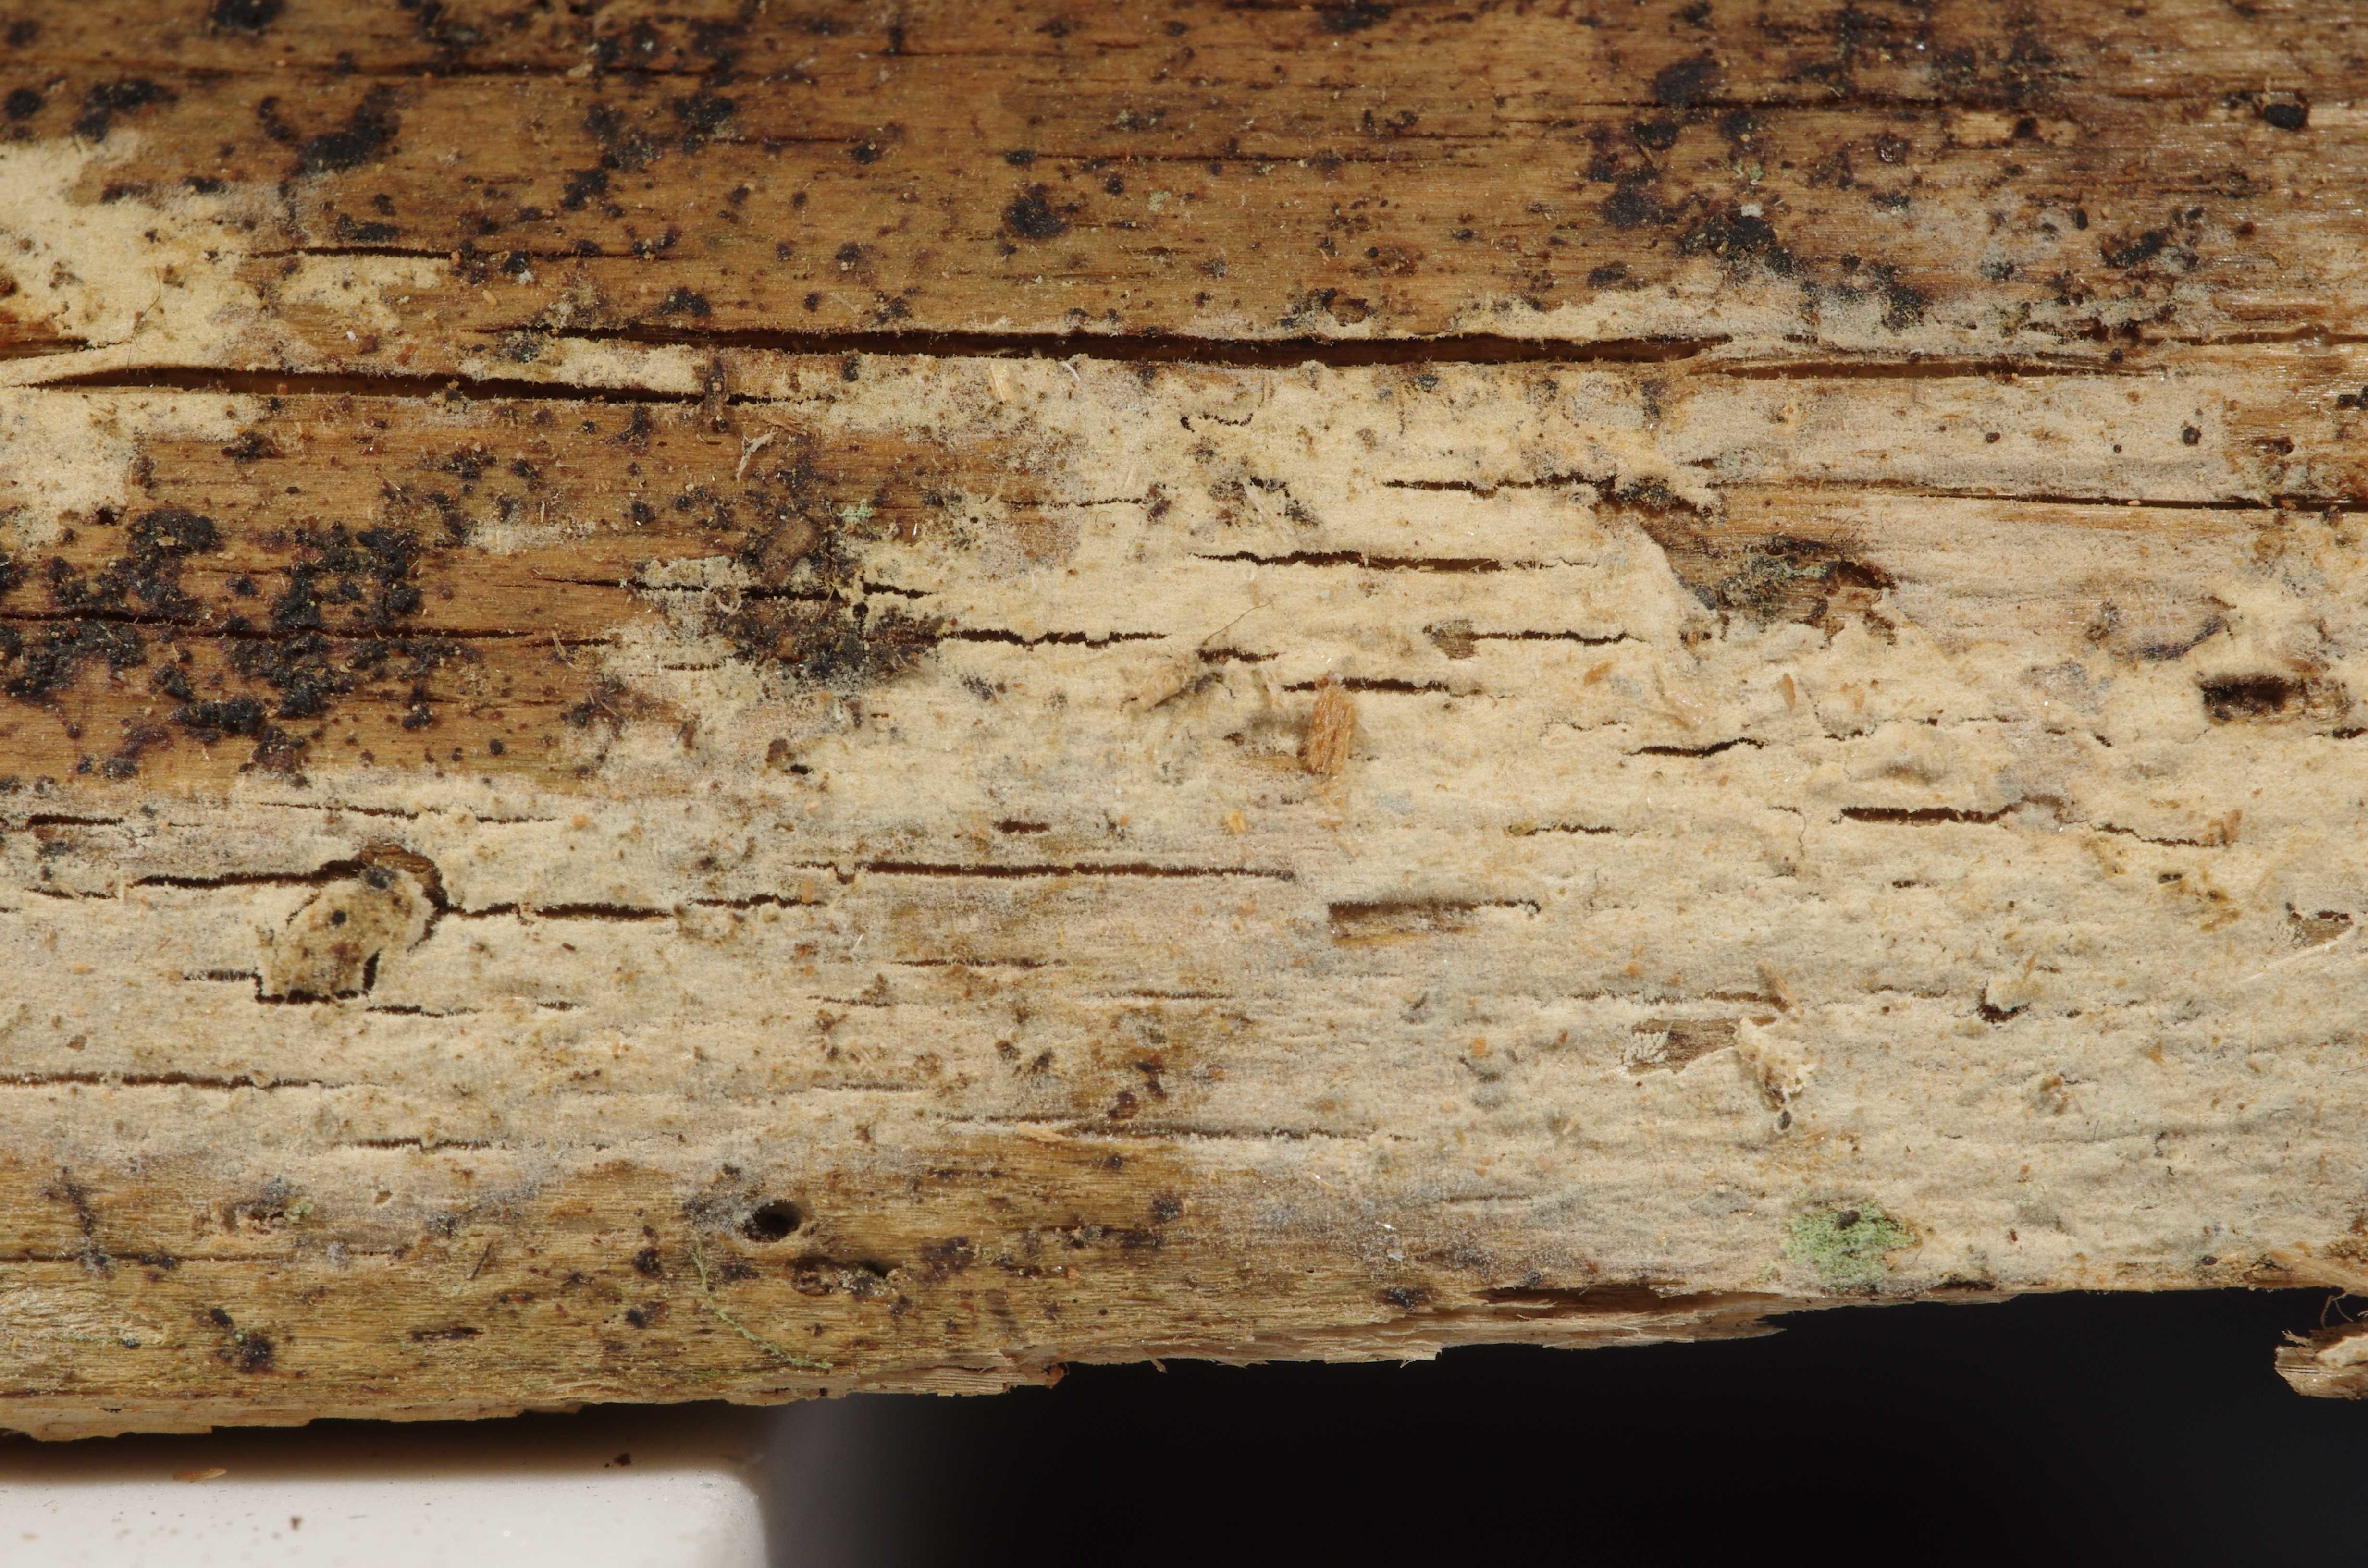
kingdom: Fungi
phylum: Basidiomycota
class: Agaricomycetes
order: Hymenochaetales
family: Hymenochaetaceae
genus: Tubulicrinis
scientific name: Tubulicrinis subulatus
